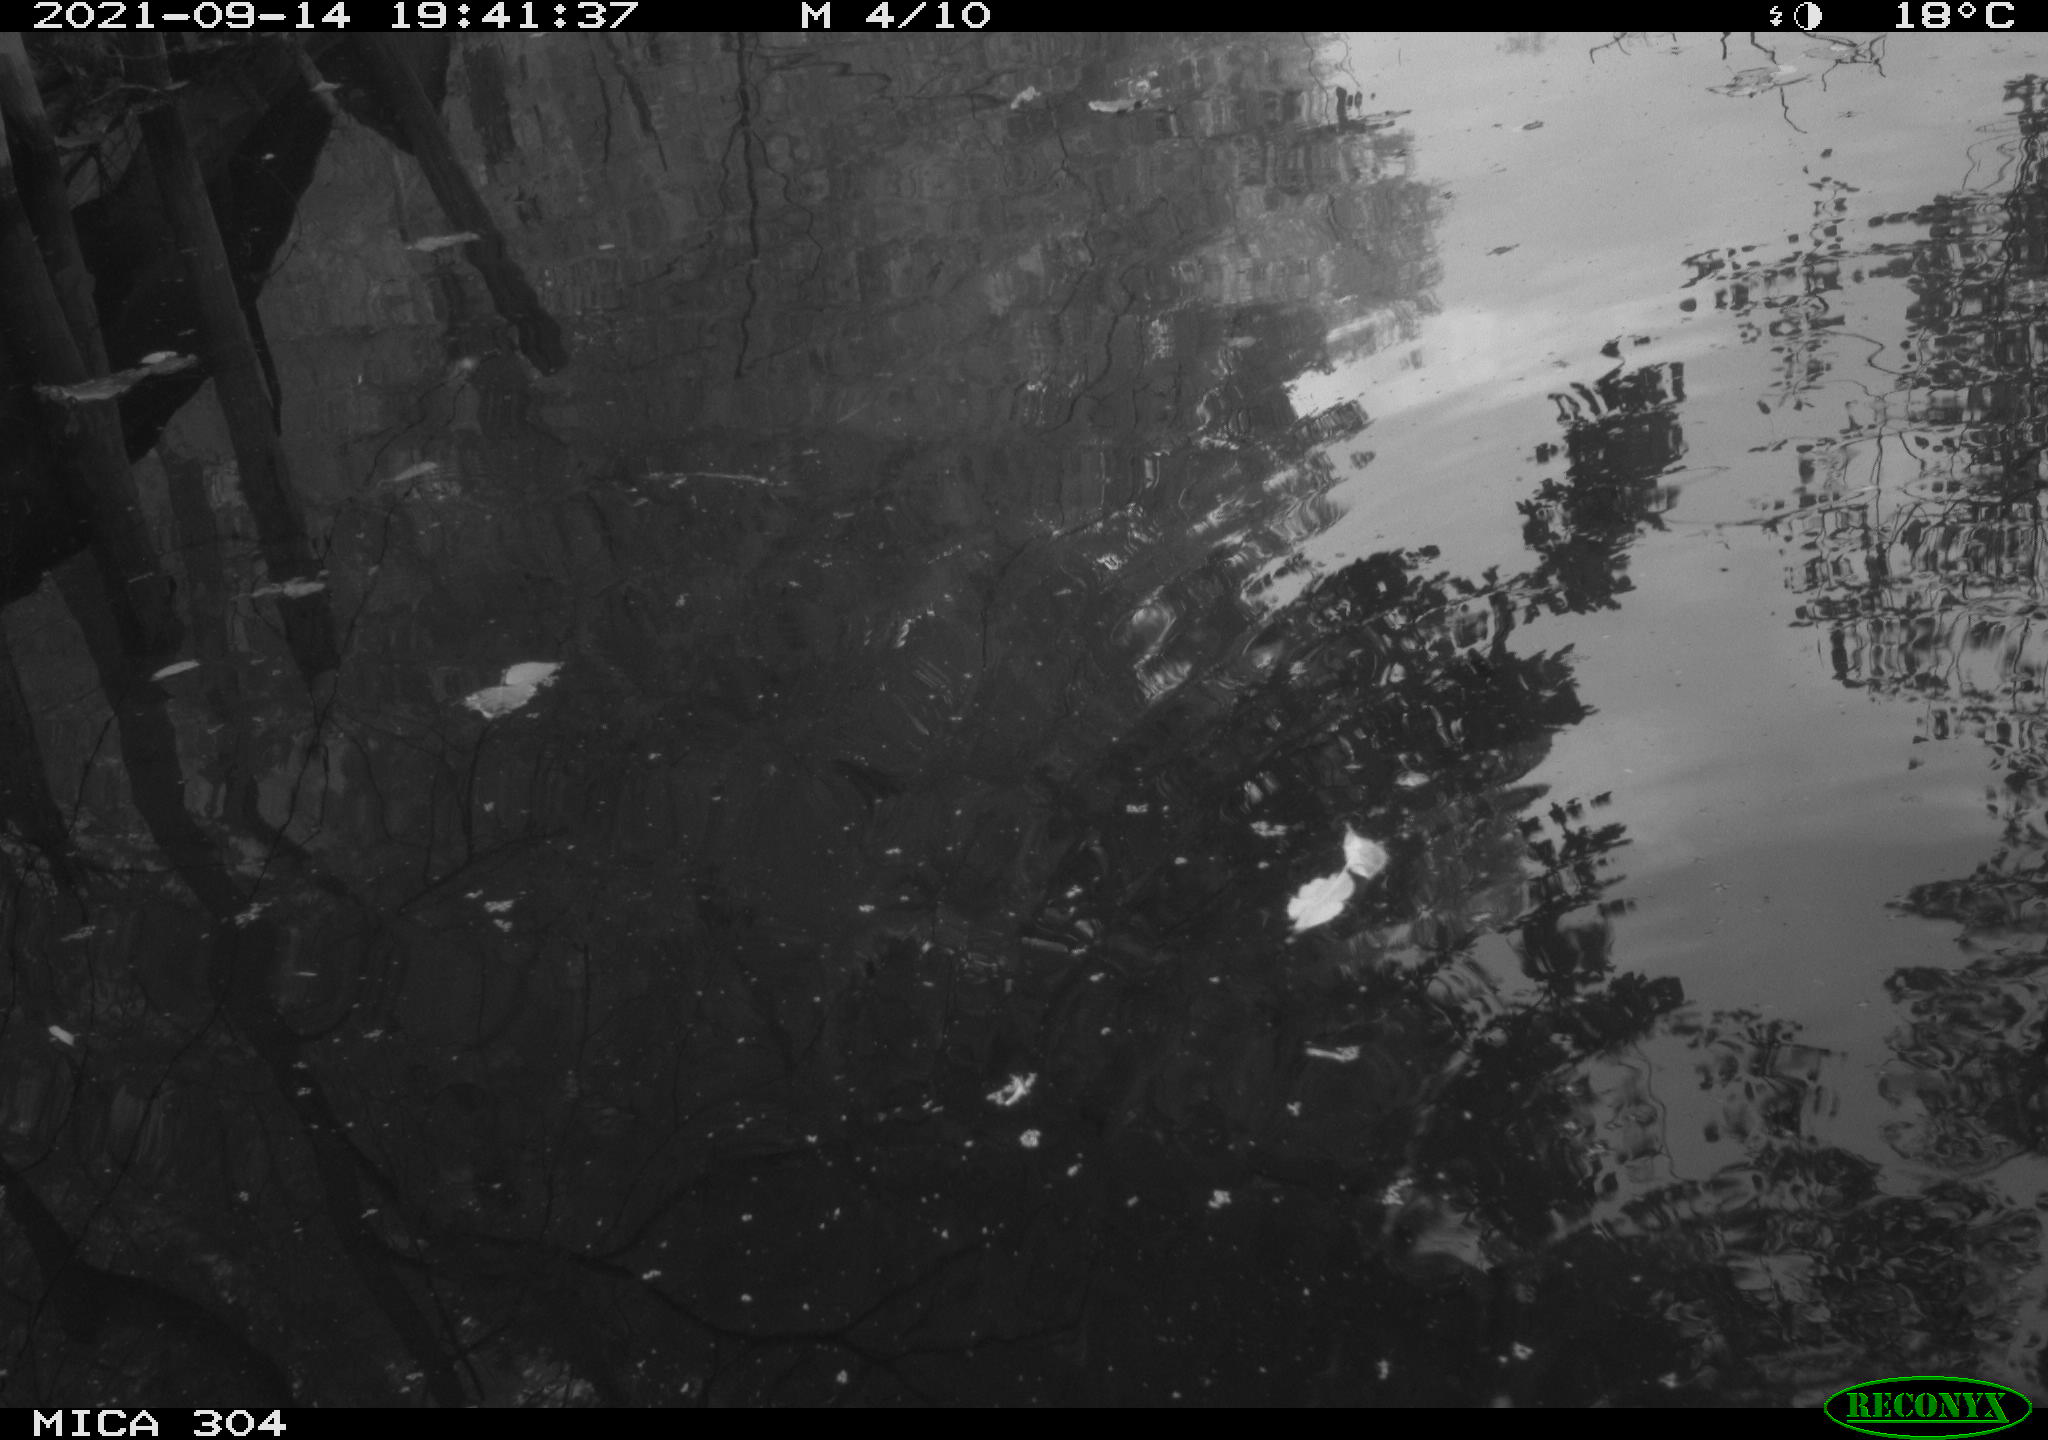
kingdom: Animalia
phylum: Chordata
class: Aves
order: Gruiformes
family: Rallidae
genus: Fulica
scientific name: Fulica atra
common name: Eurasian coot
